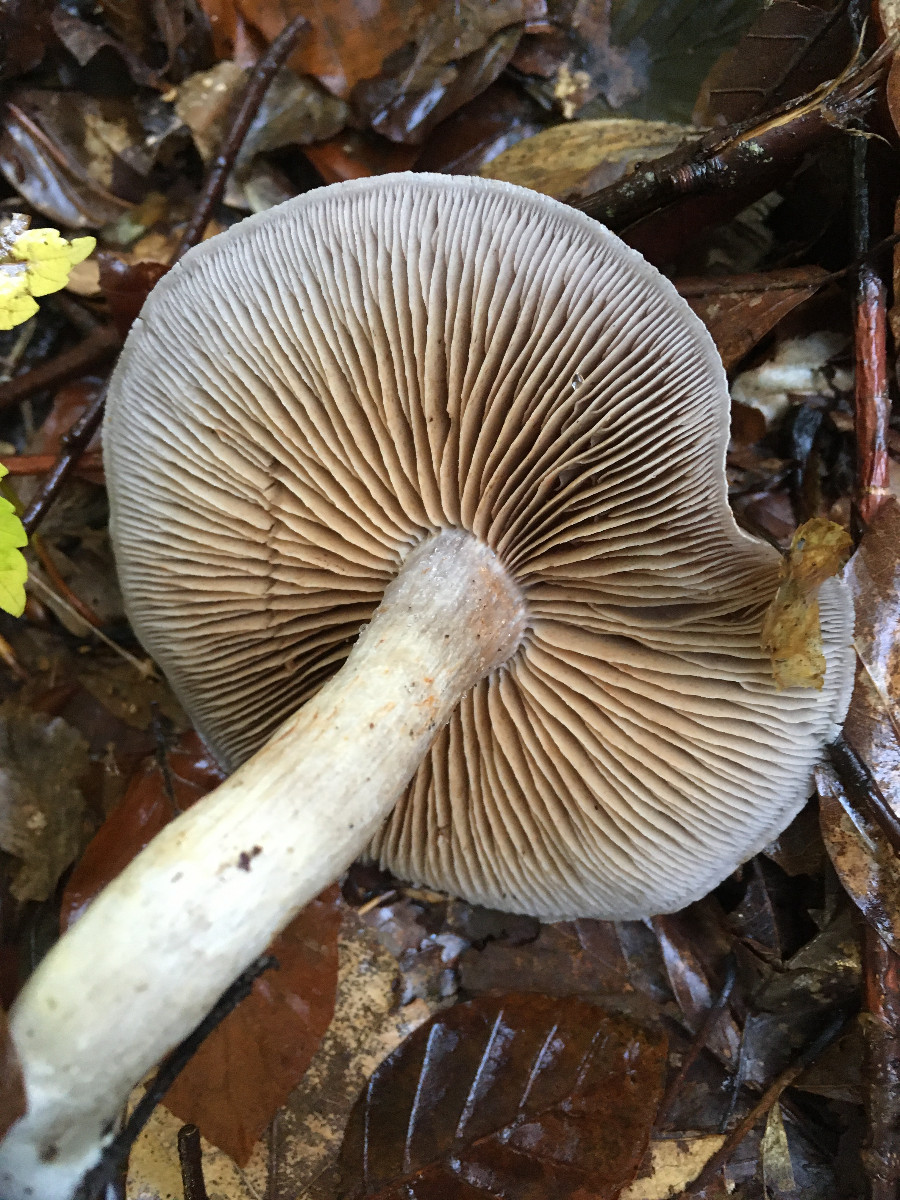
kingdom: Fungi
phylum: Basidiomycota
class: Agaricomycetes
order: Agaricales
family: Cortinariaceae
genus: Cortinarius
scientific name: Cortinarius
